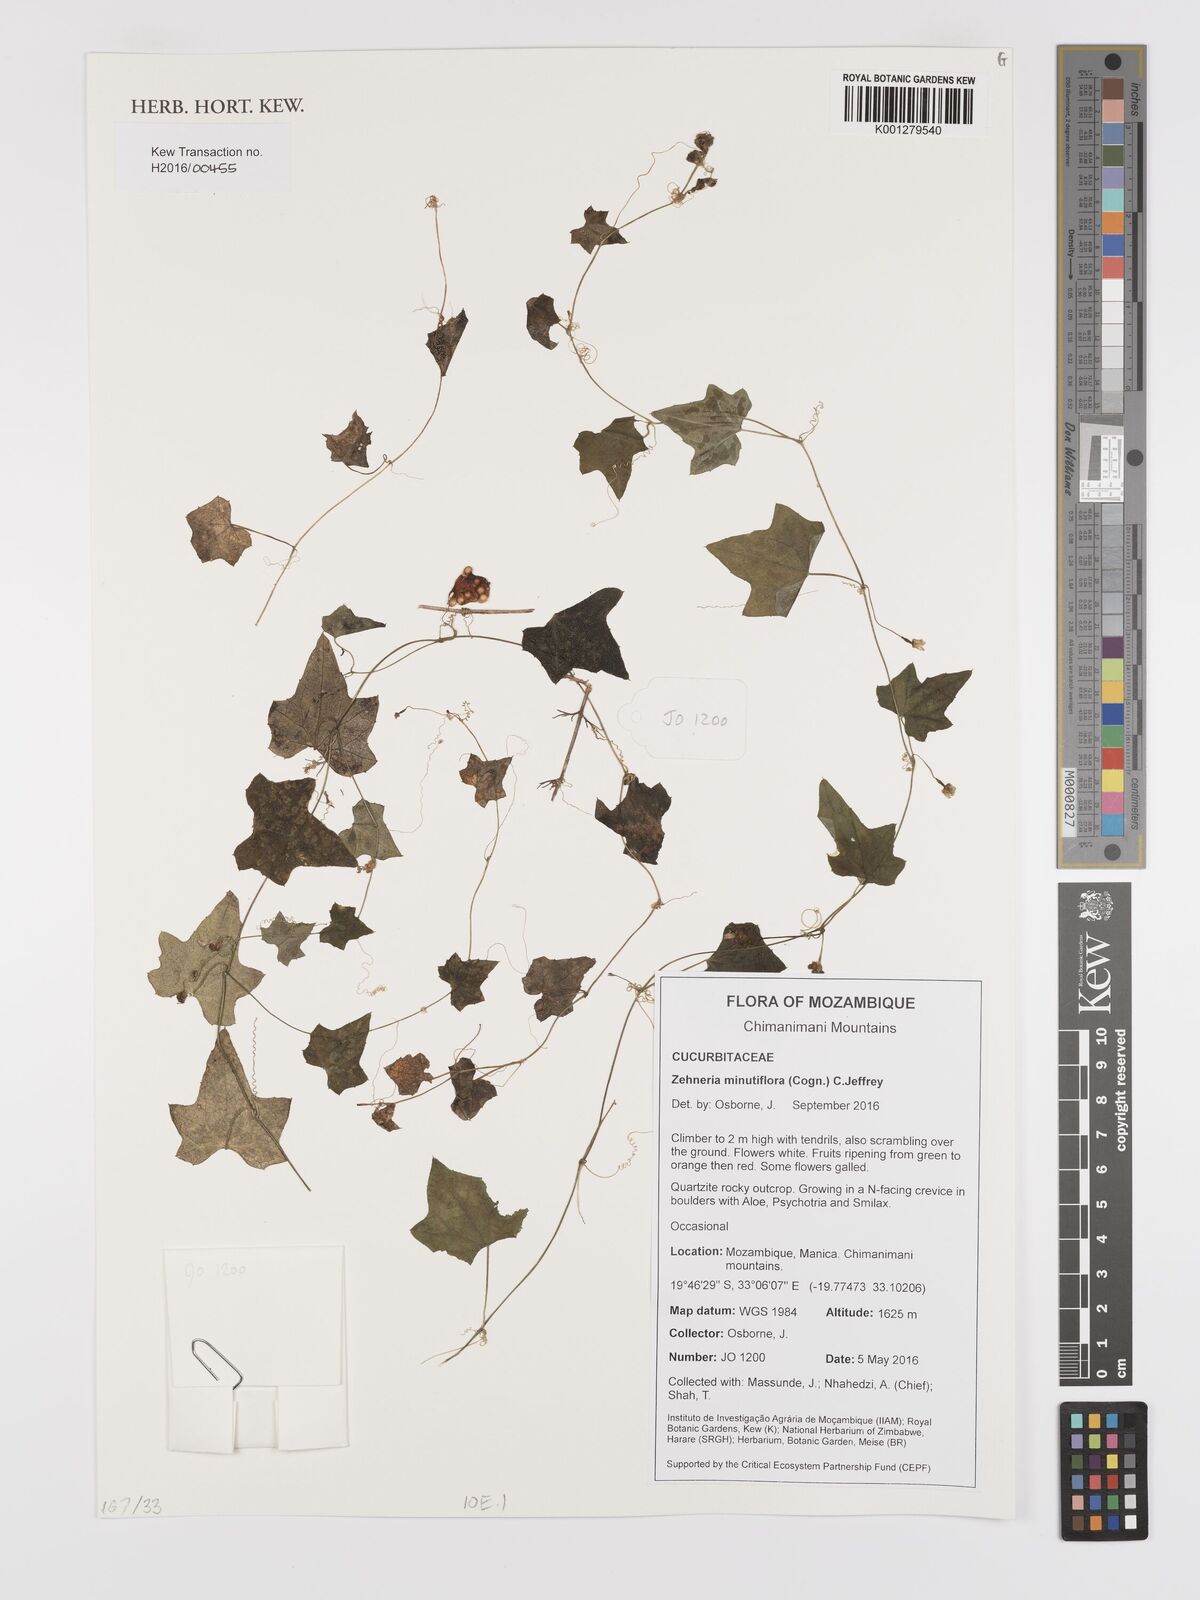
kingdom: Plantae
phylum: Tracheophyta
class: Magnoliopsida
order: Cucurbitales
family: Cucurbitaceae
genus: Zehneria
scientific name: Zehneria minutiflora
